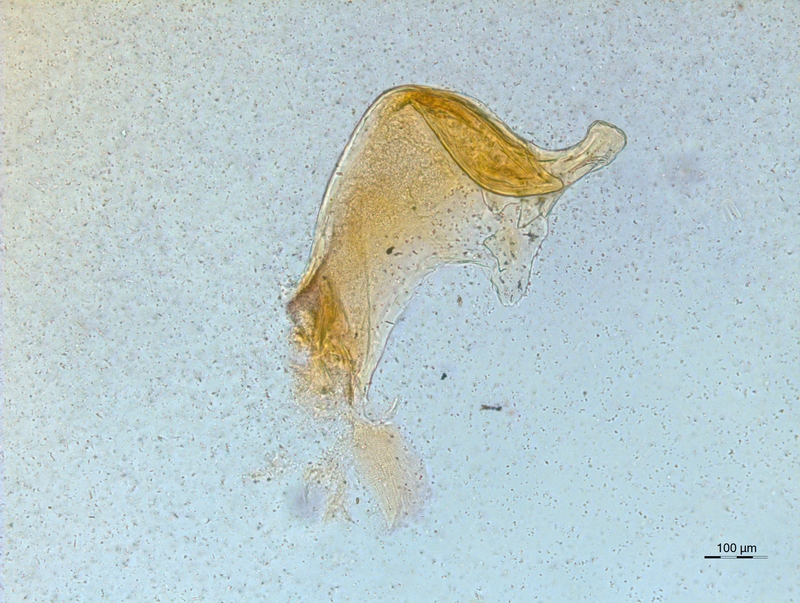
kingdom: Animalia
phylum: Arthropoda
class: Diplopoda
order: Chordeumatida
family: Craspedosomatidae
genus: Craspedosoma
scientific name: Craspedosoma rawlinsii
